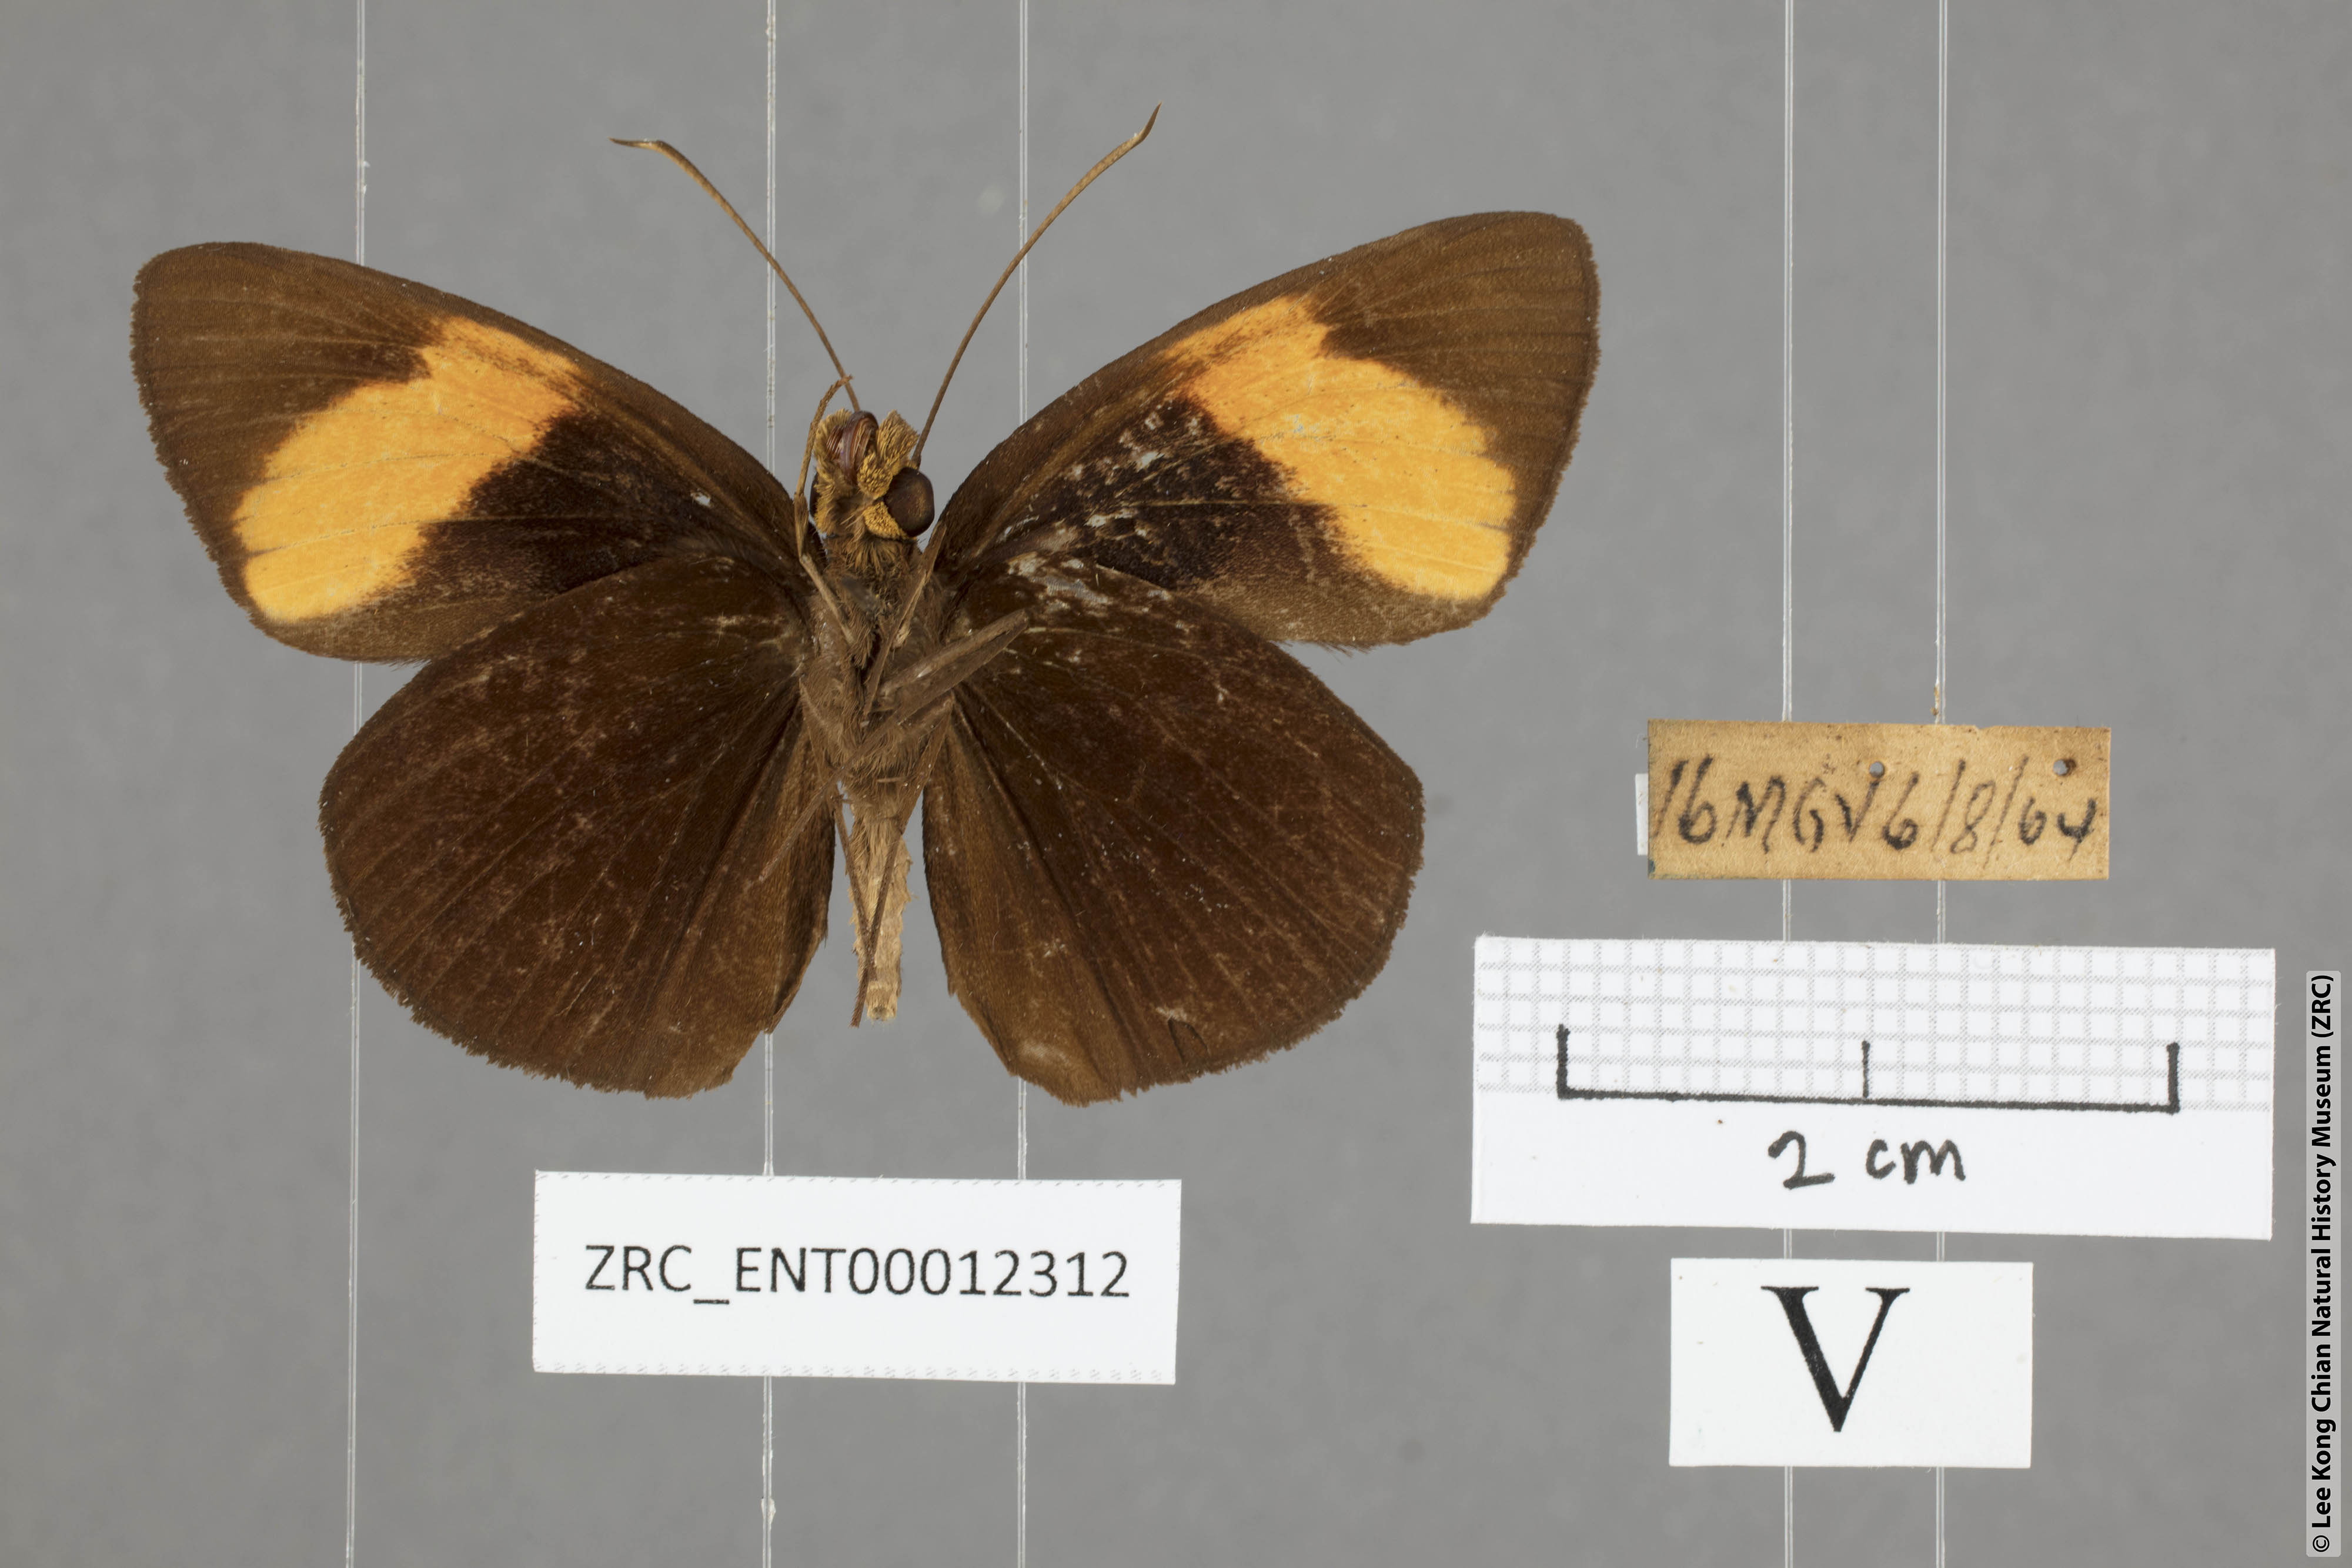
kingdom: Animalia
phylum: Arthropoda
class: Insecta
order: Lepidoptera
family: Hesperiidae
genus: Ancistroides
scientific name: Ancistroides armatus
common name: Red demon
